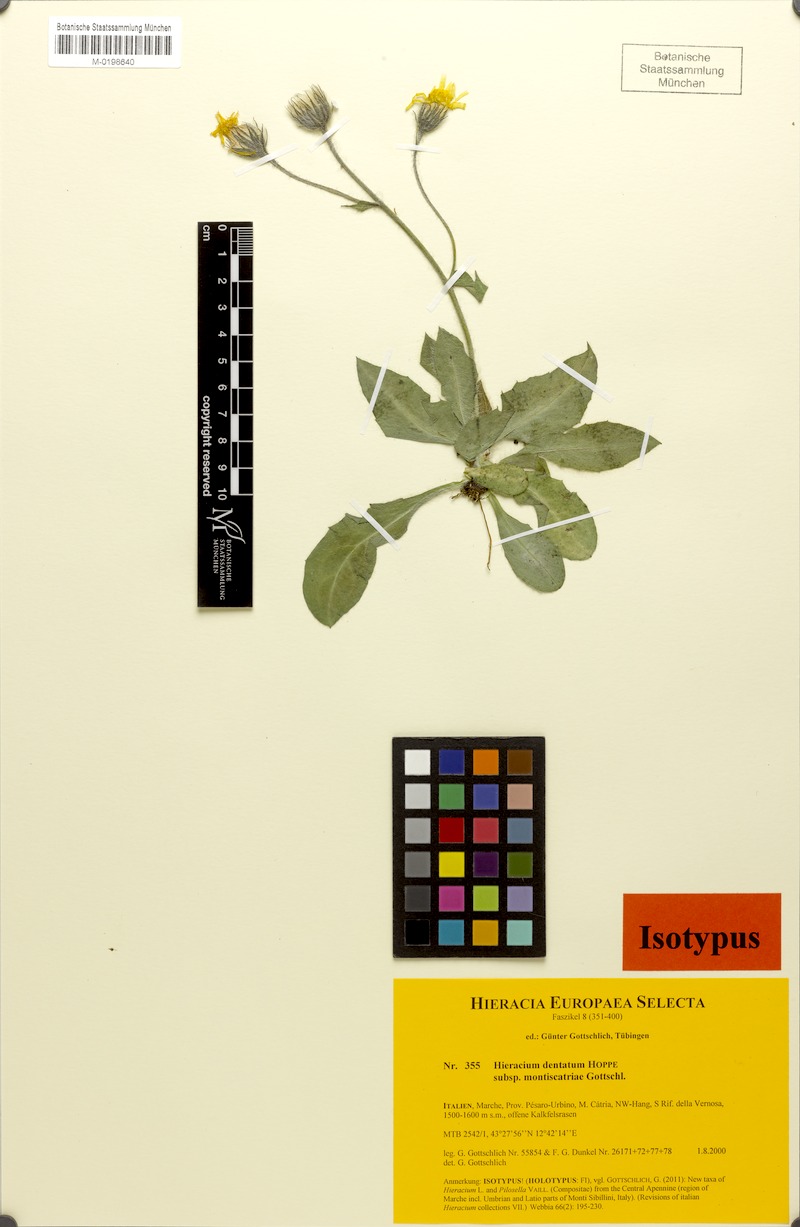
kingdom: Plantae
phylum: Tracheophyta
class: Magnoliopsida
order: Asterales
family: Asteraceae
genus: Hieracium
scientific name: Hieracium dentatum
